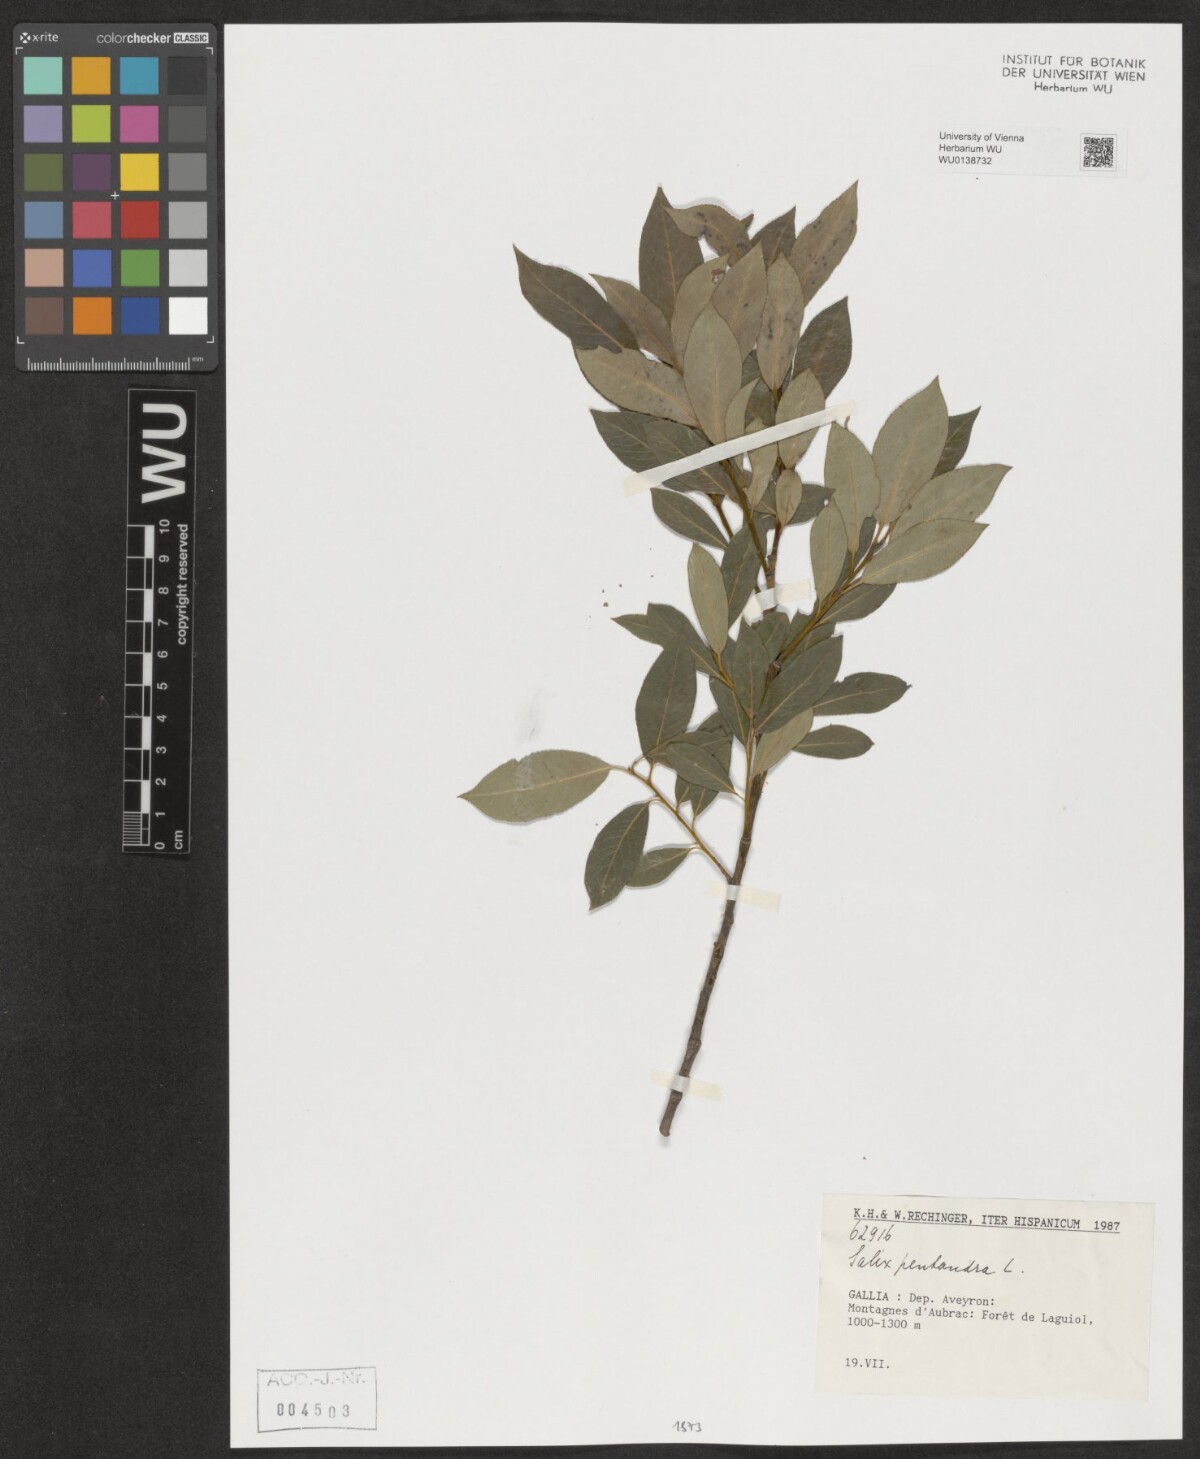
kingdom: Plantae
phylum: Tracheophyta
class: Magnoliopsida
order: Malpighiales
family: Salicaceae
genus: Salix
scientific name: Salix pentandra
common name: Bay willow
